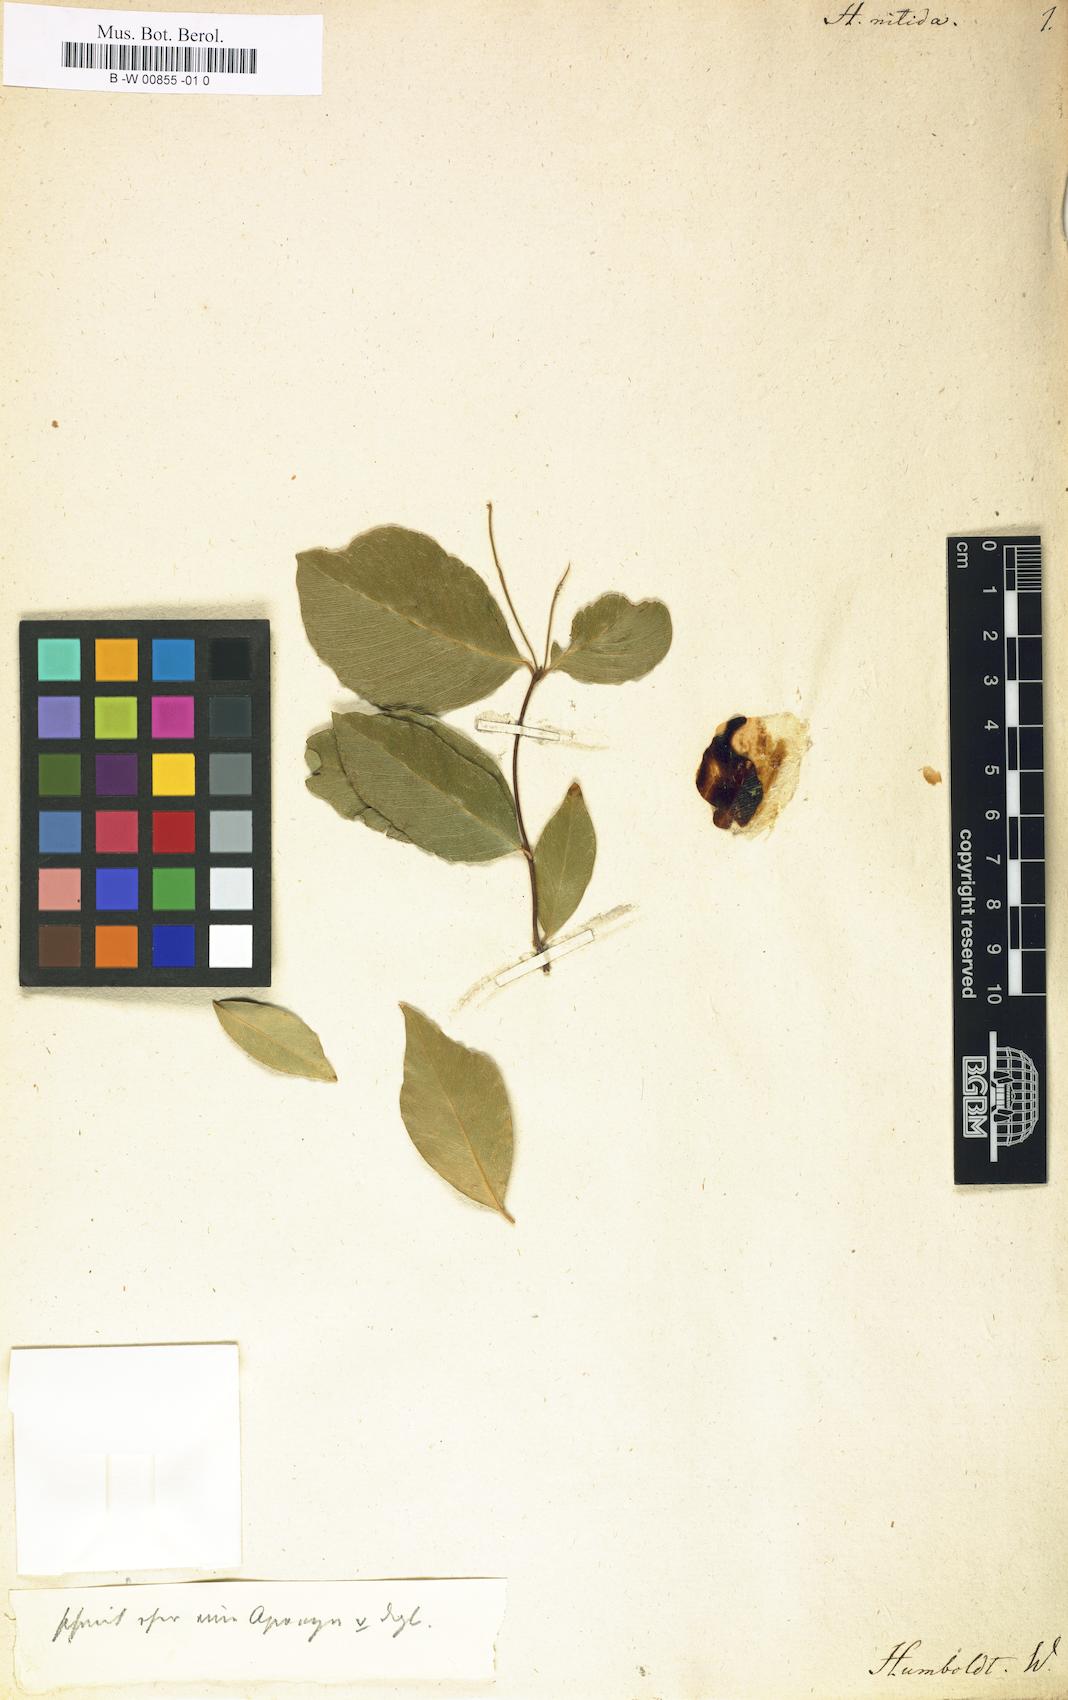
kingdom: Plantae
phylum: Tracheophyta
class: Magnoliopsida
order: Celastrales
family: Celastraceae
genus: Loeseneriella
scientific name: Loeseneriella africana
